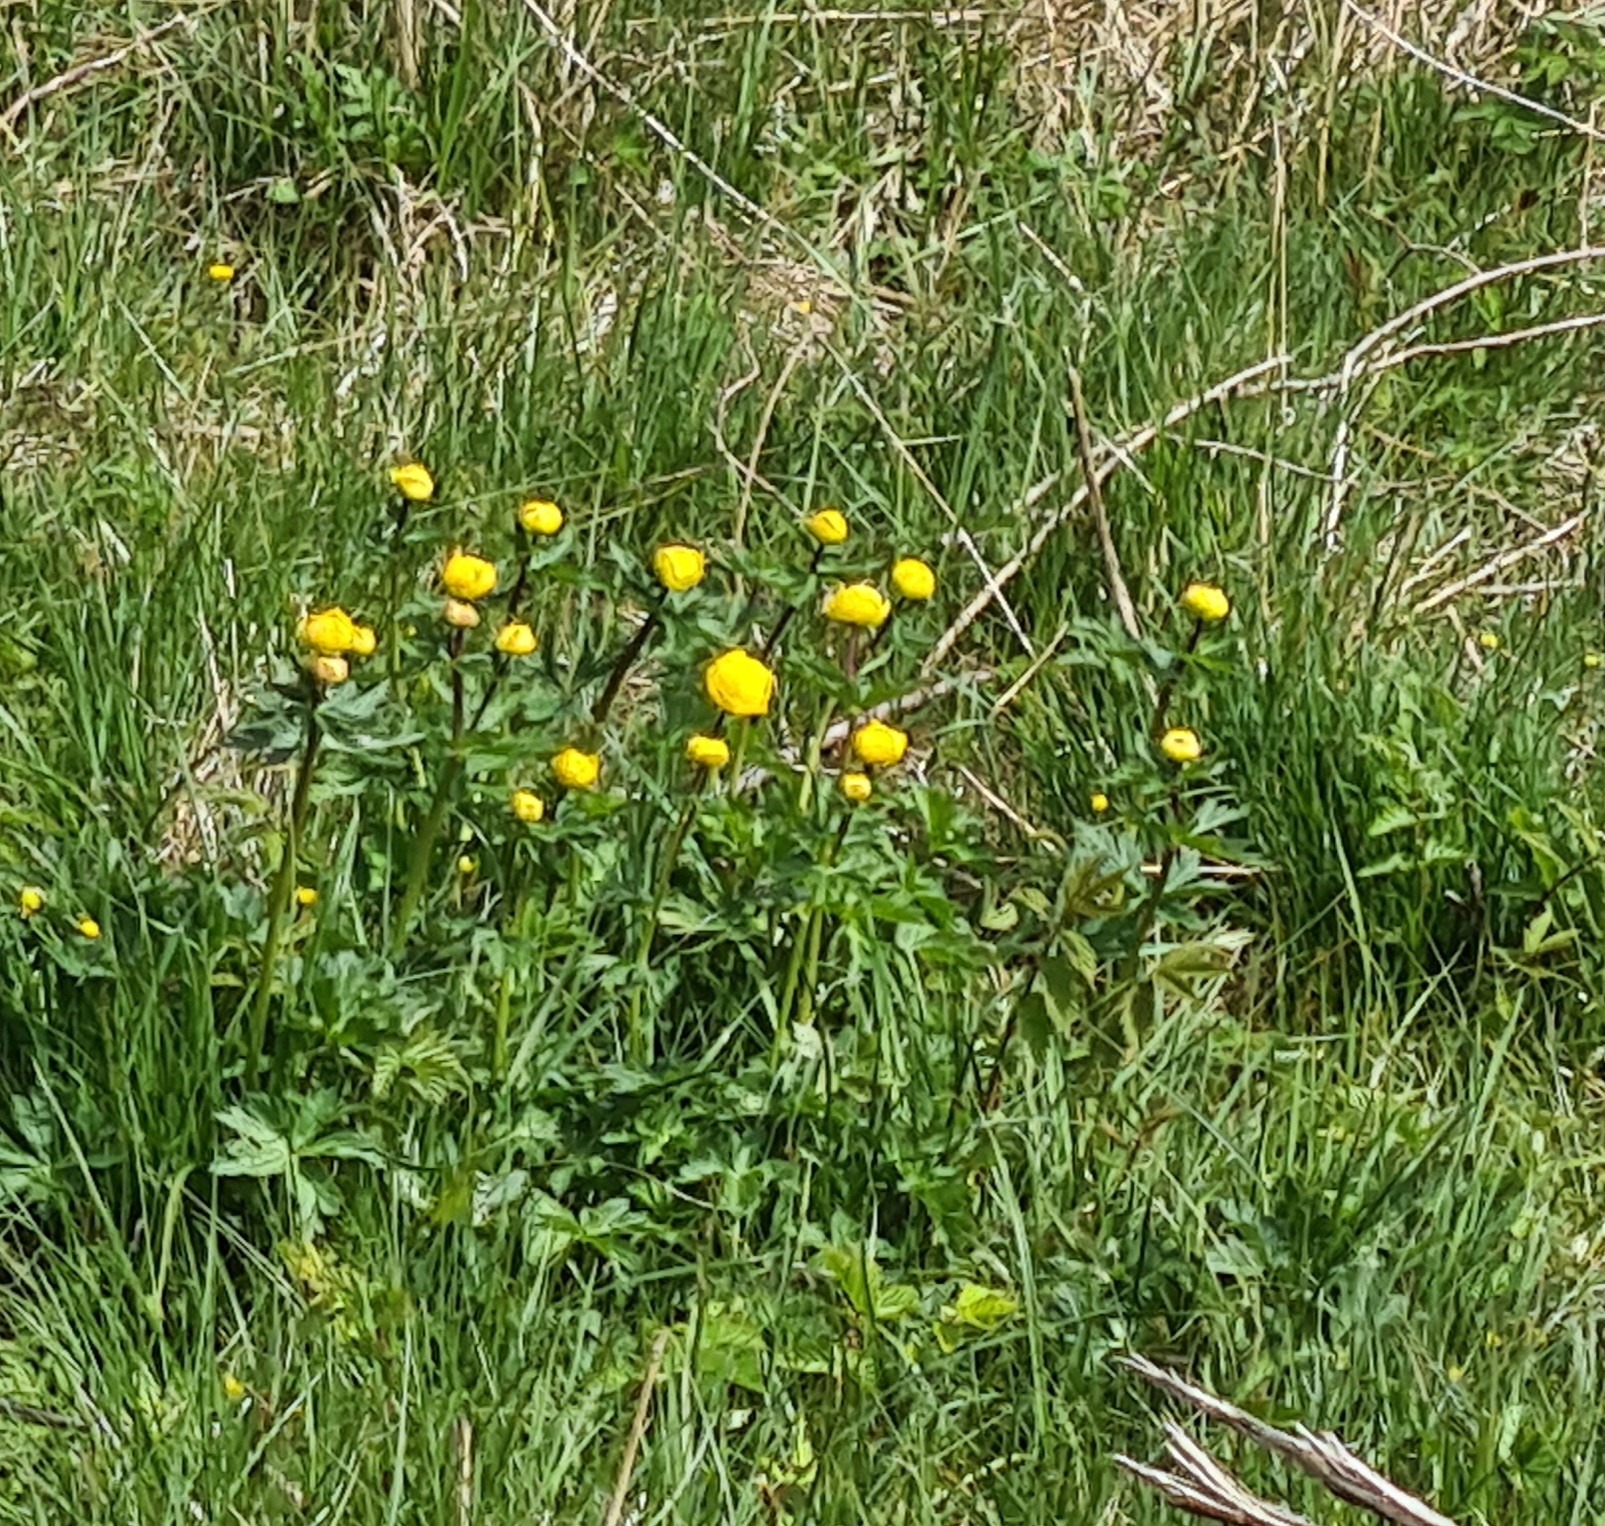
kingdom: Plantae
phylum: Tracheophyta
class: Magnoliopsida
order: Ranunculales
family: Ranunculaceae
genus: Trollius
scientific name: Trollius europaeus
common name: Engblomme
